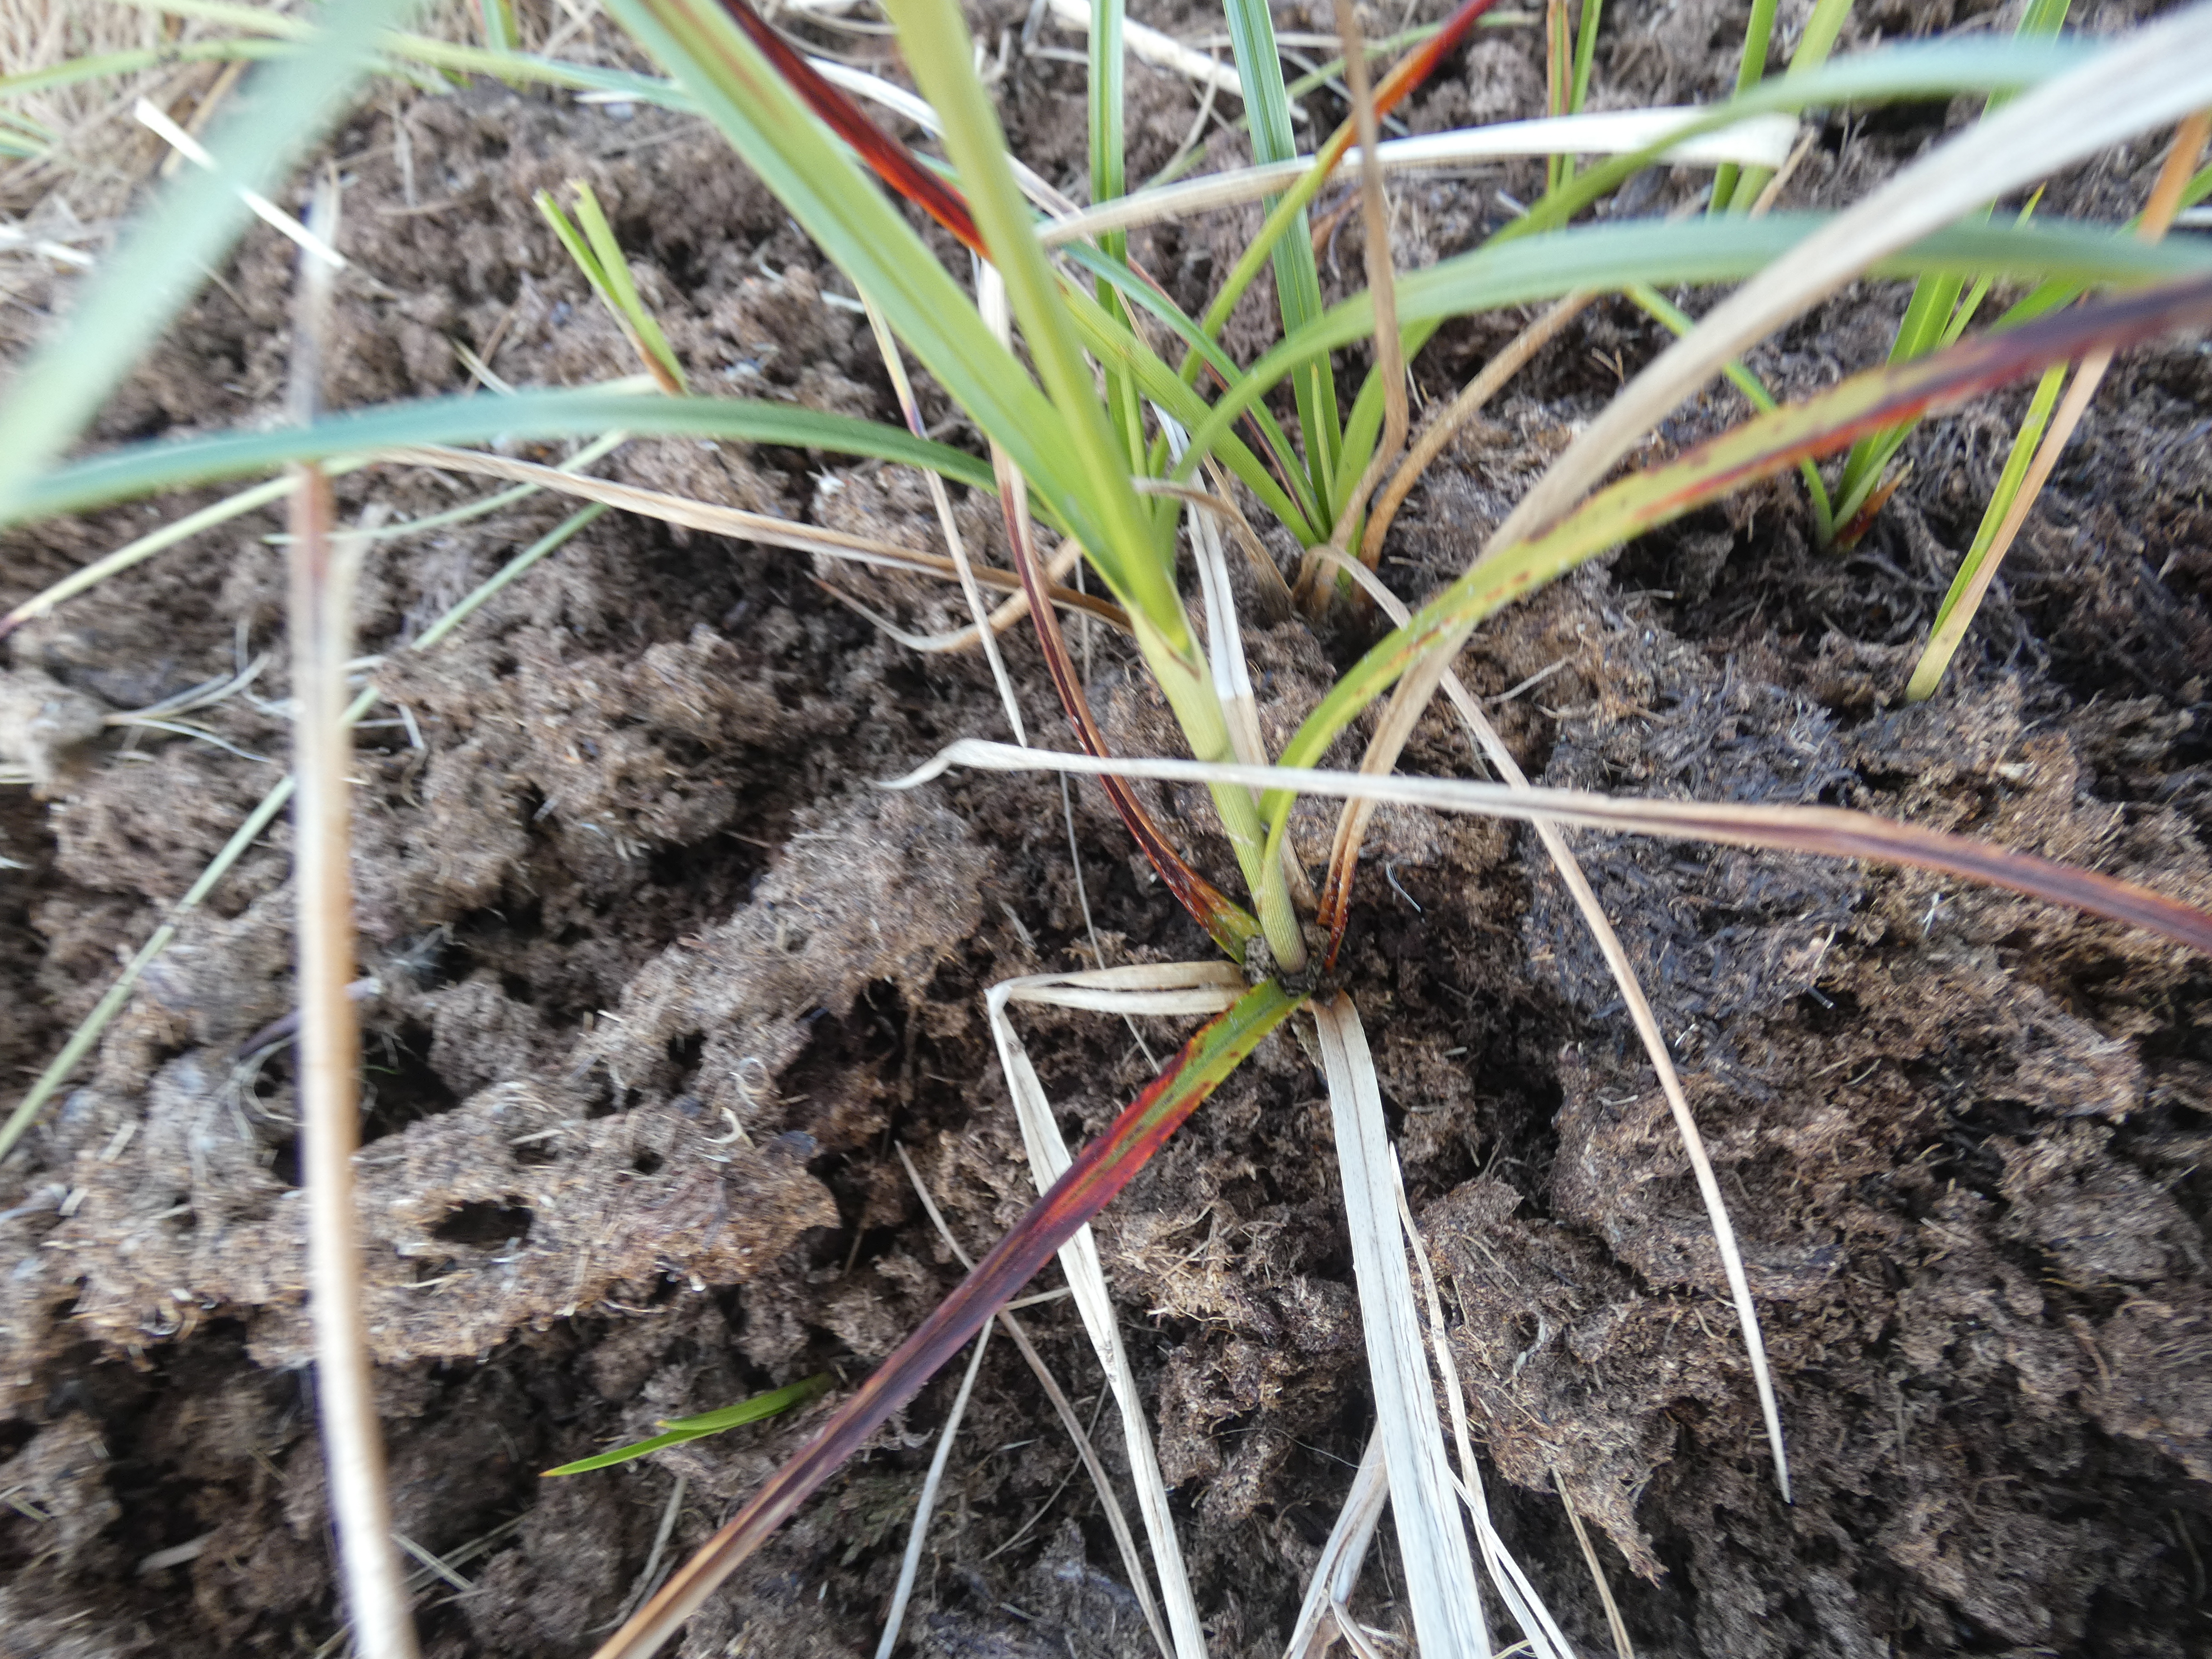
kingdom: Plantae
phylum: Tracheophyta
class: Liliopsida
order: Poales
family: Cyperaceae
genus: Eriophorum
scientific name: Eriophorum angustifolium
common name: Smalbladet kæruld
